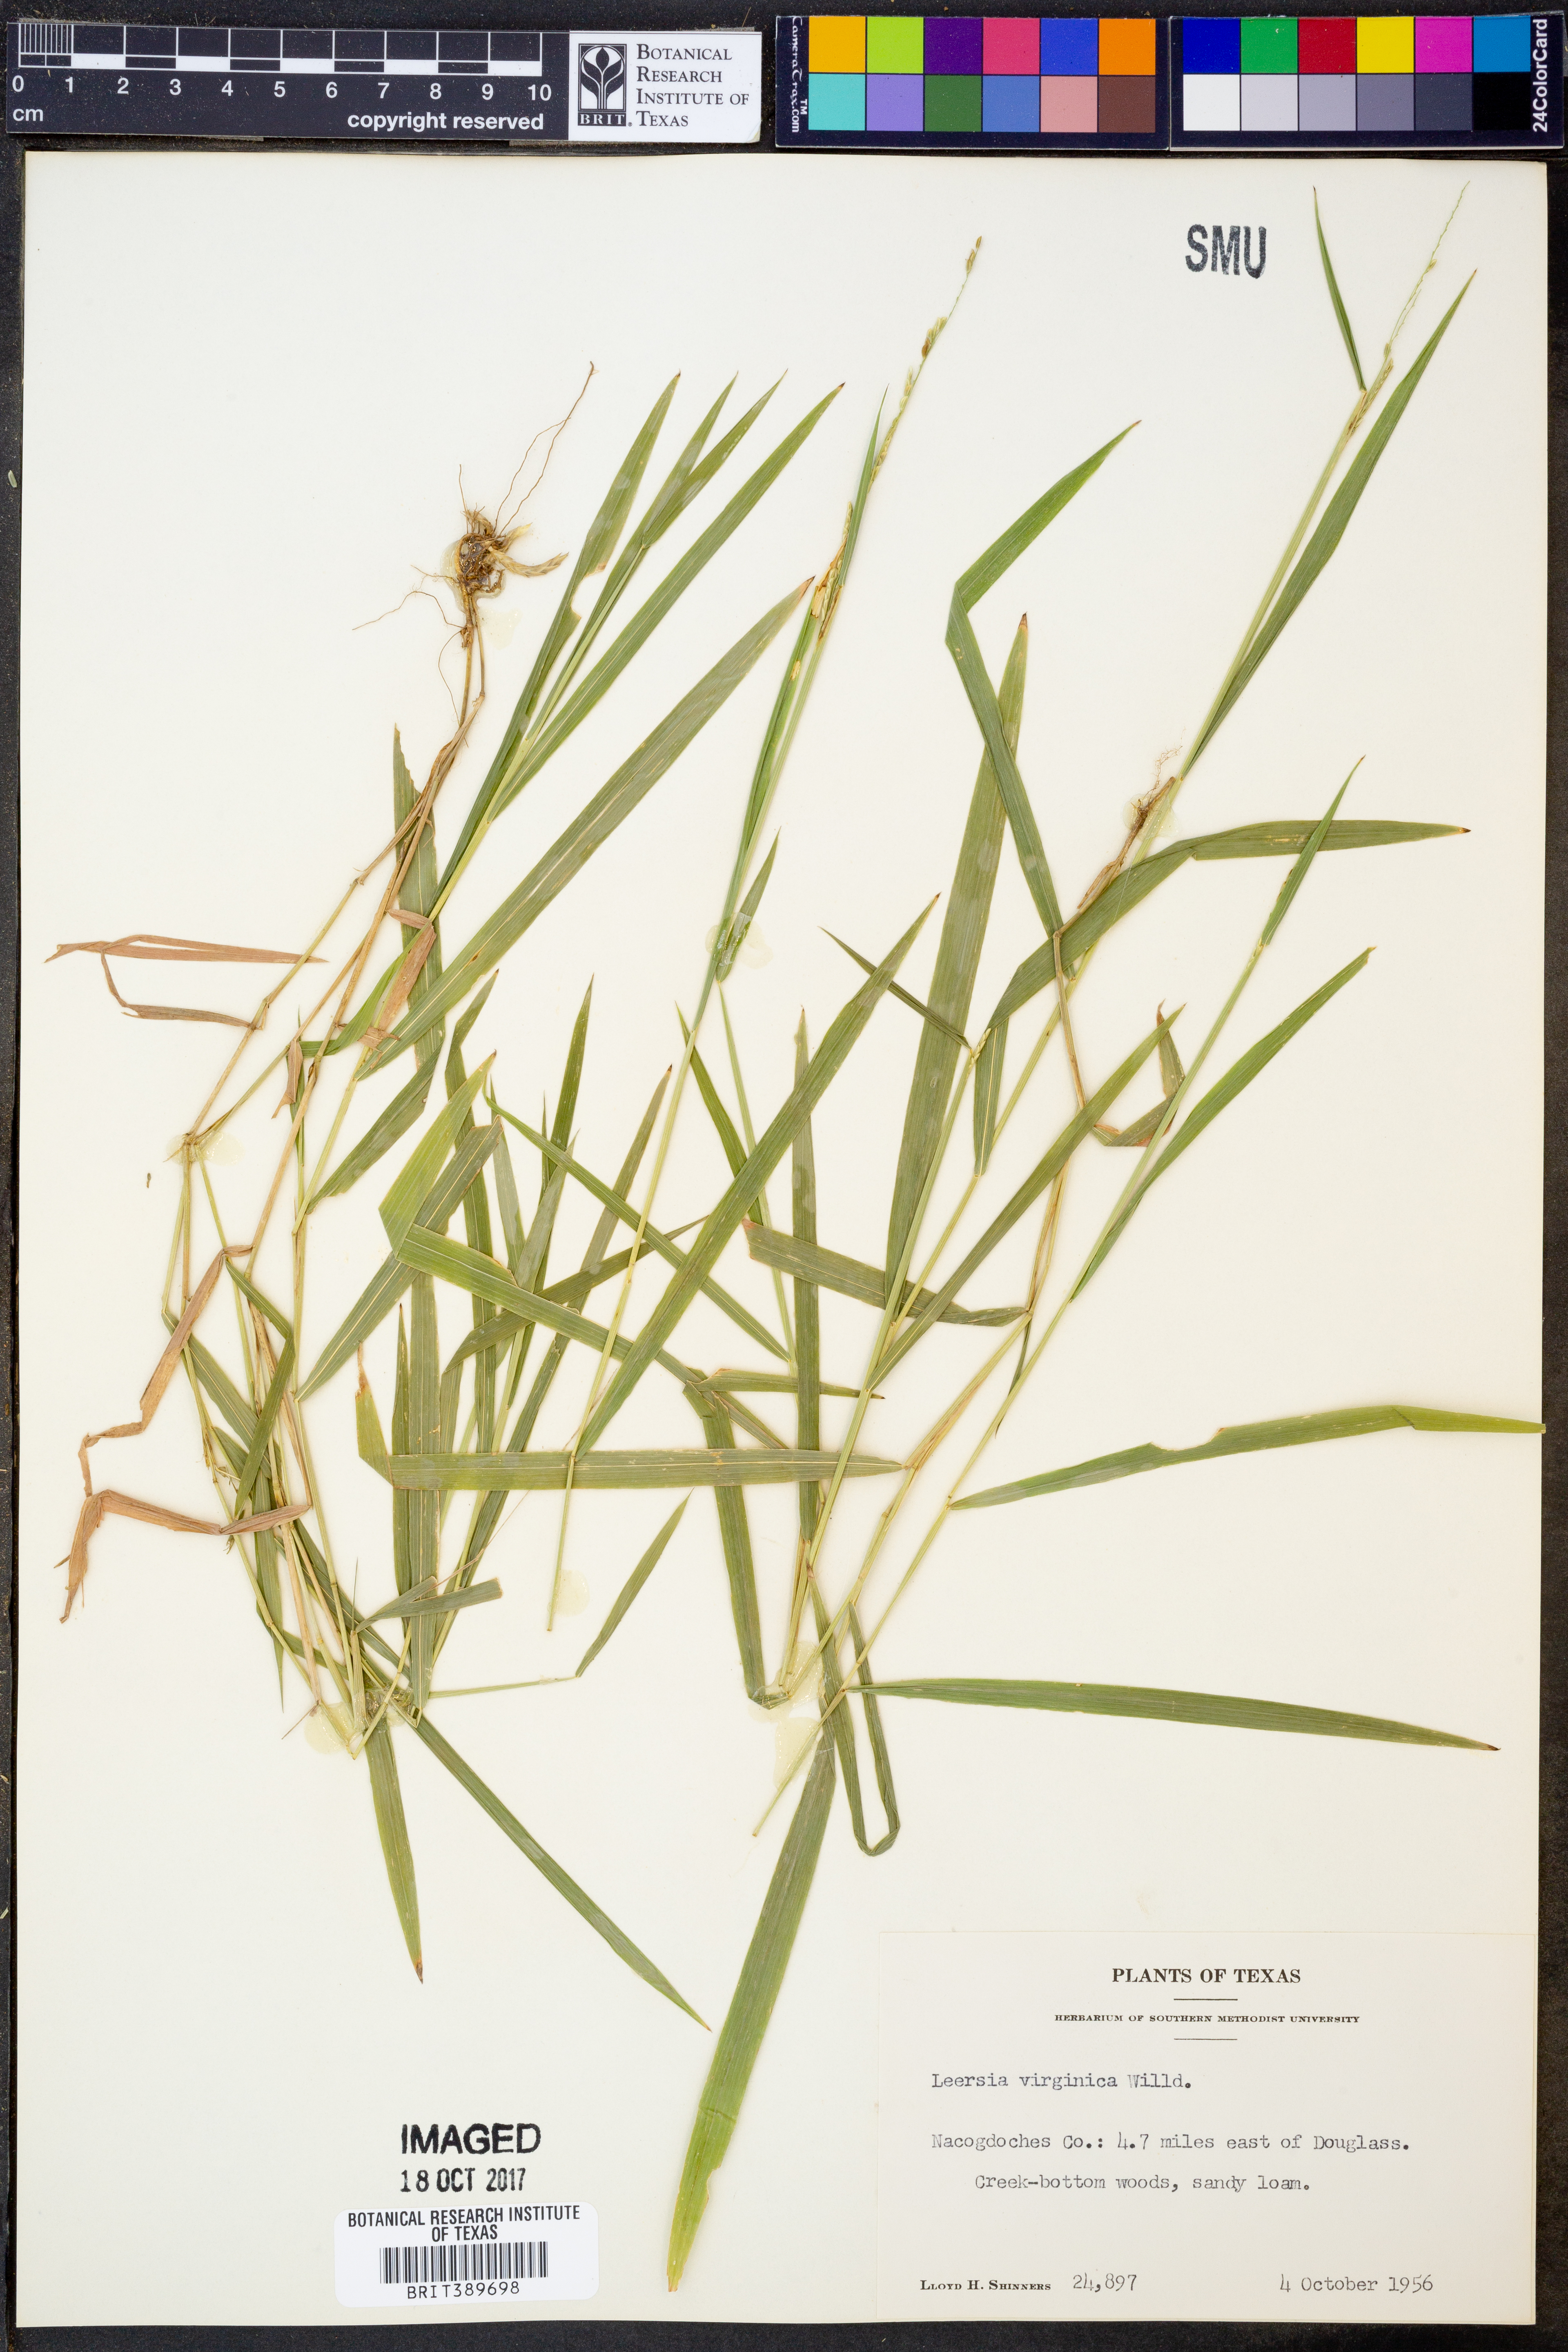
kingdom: Plantae
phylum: Tracheophyta
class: Liliopsida
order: Poales
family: Poaceae
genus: Leersia
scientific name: Leersia virginica
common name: White cutgrass
